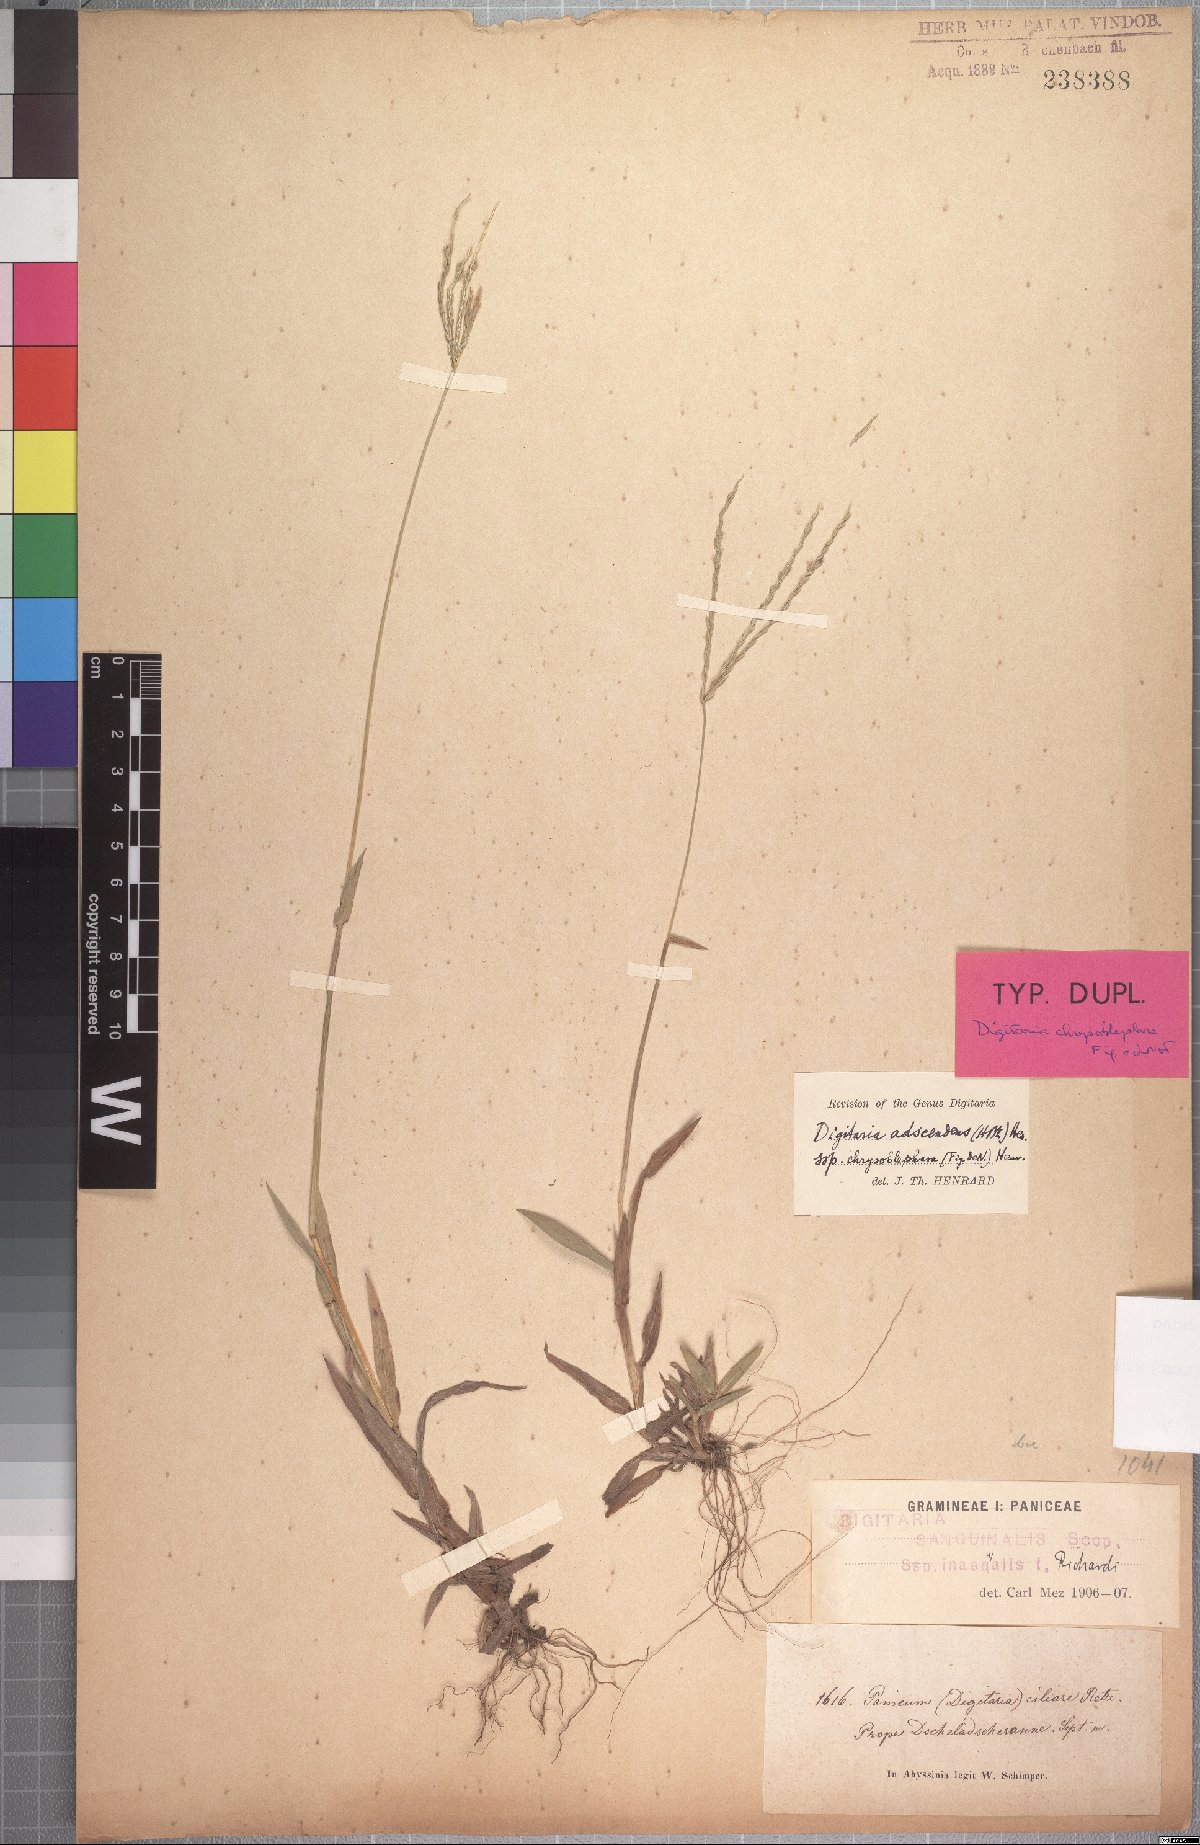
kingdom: Plantae
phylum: Tracheophyta
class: Liliopsida
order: Poales
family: Poaceae
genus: Digitaria
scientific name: Digitaria bicornis
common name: Asian crabgrass
